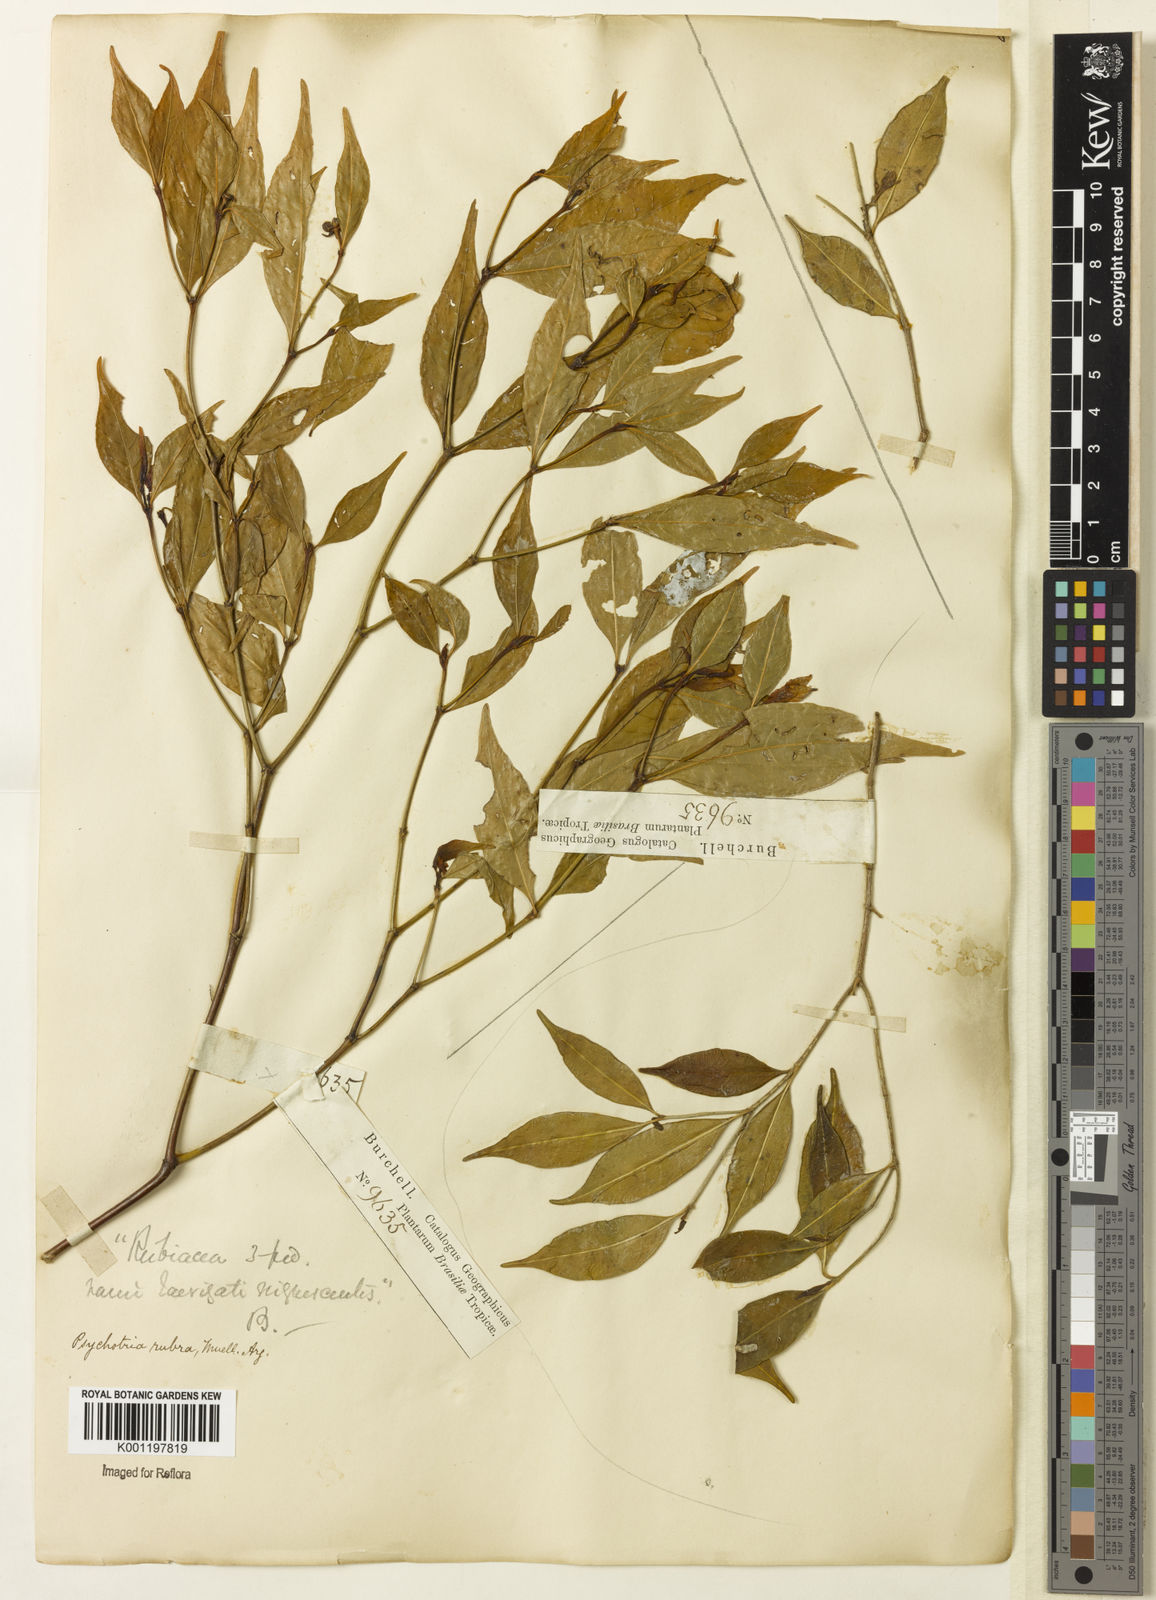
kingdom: Plantae
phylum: Tracheophyta
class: Magnoliopsida
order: Gentianales
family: Rubiaceae
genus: Psychotria
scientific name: Psychotria
